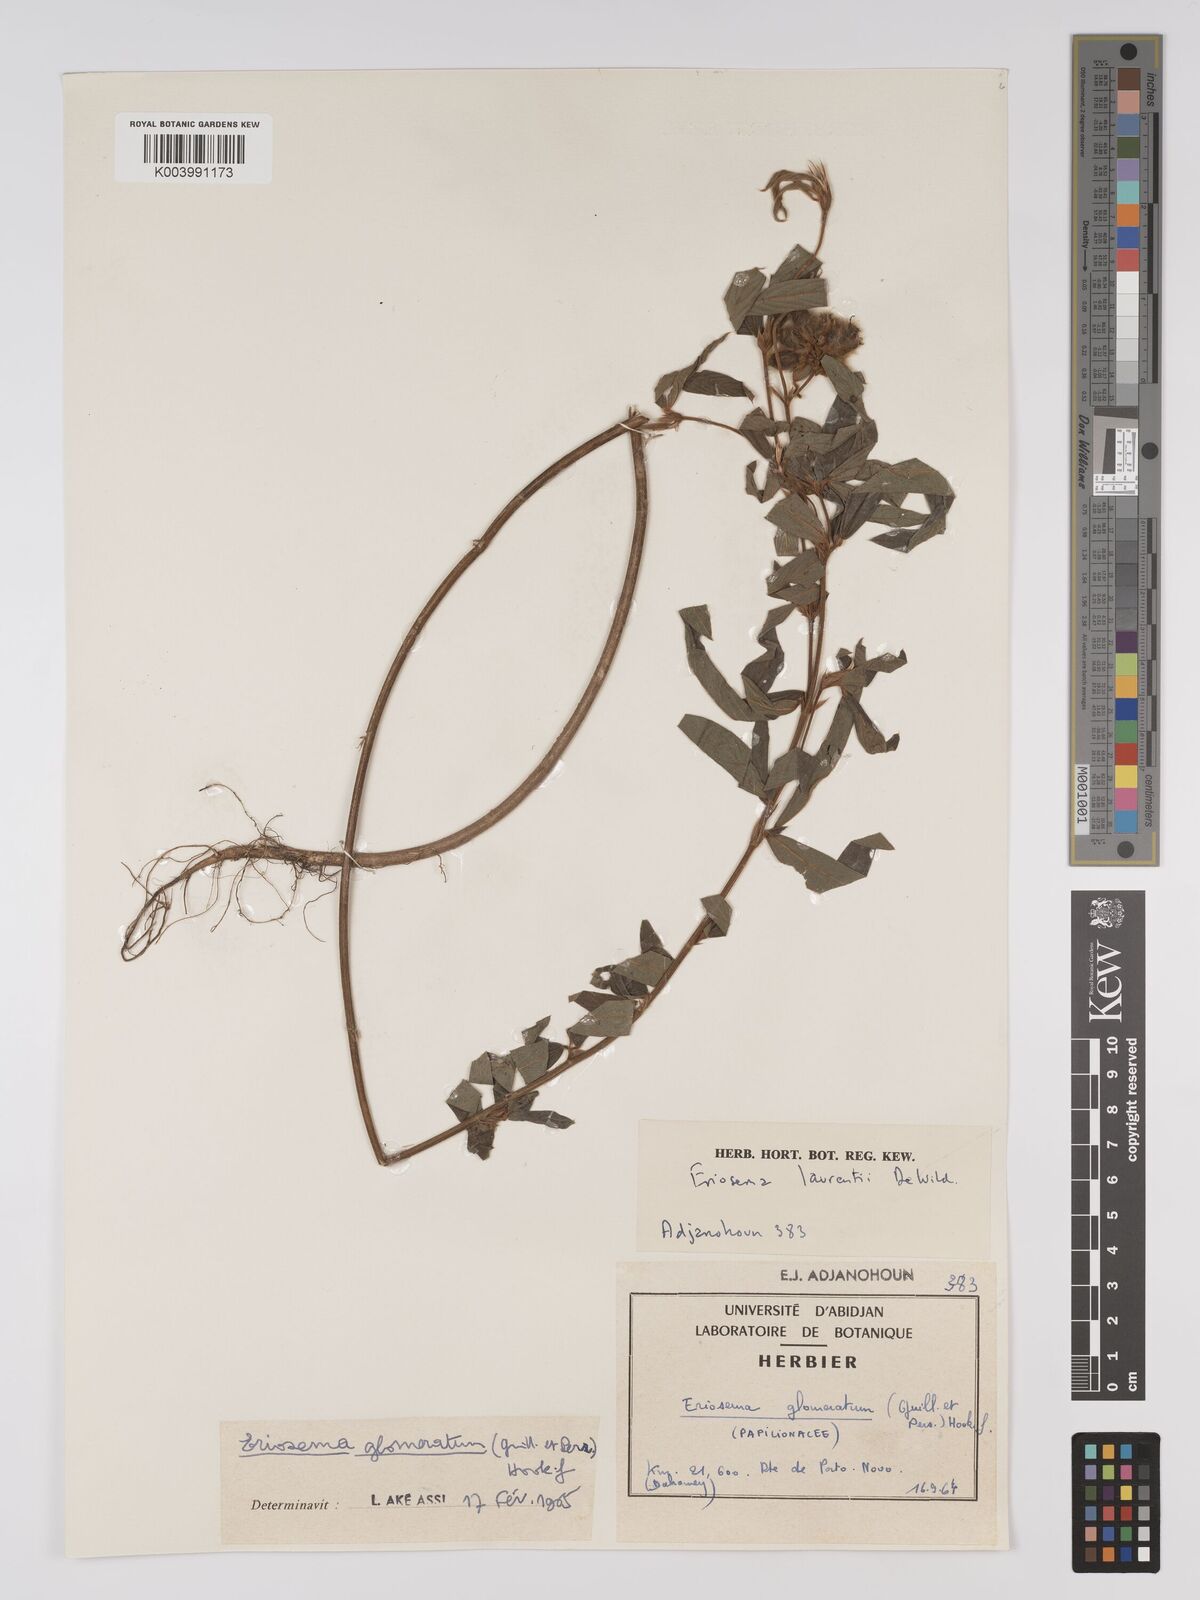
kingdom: Plantae
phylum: Tracheophyta
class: Magnoliopsida
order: Fabales
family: Fabaceae
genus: Eriosema
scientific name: Eriosema glomeratum
